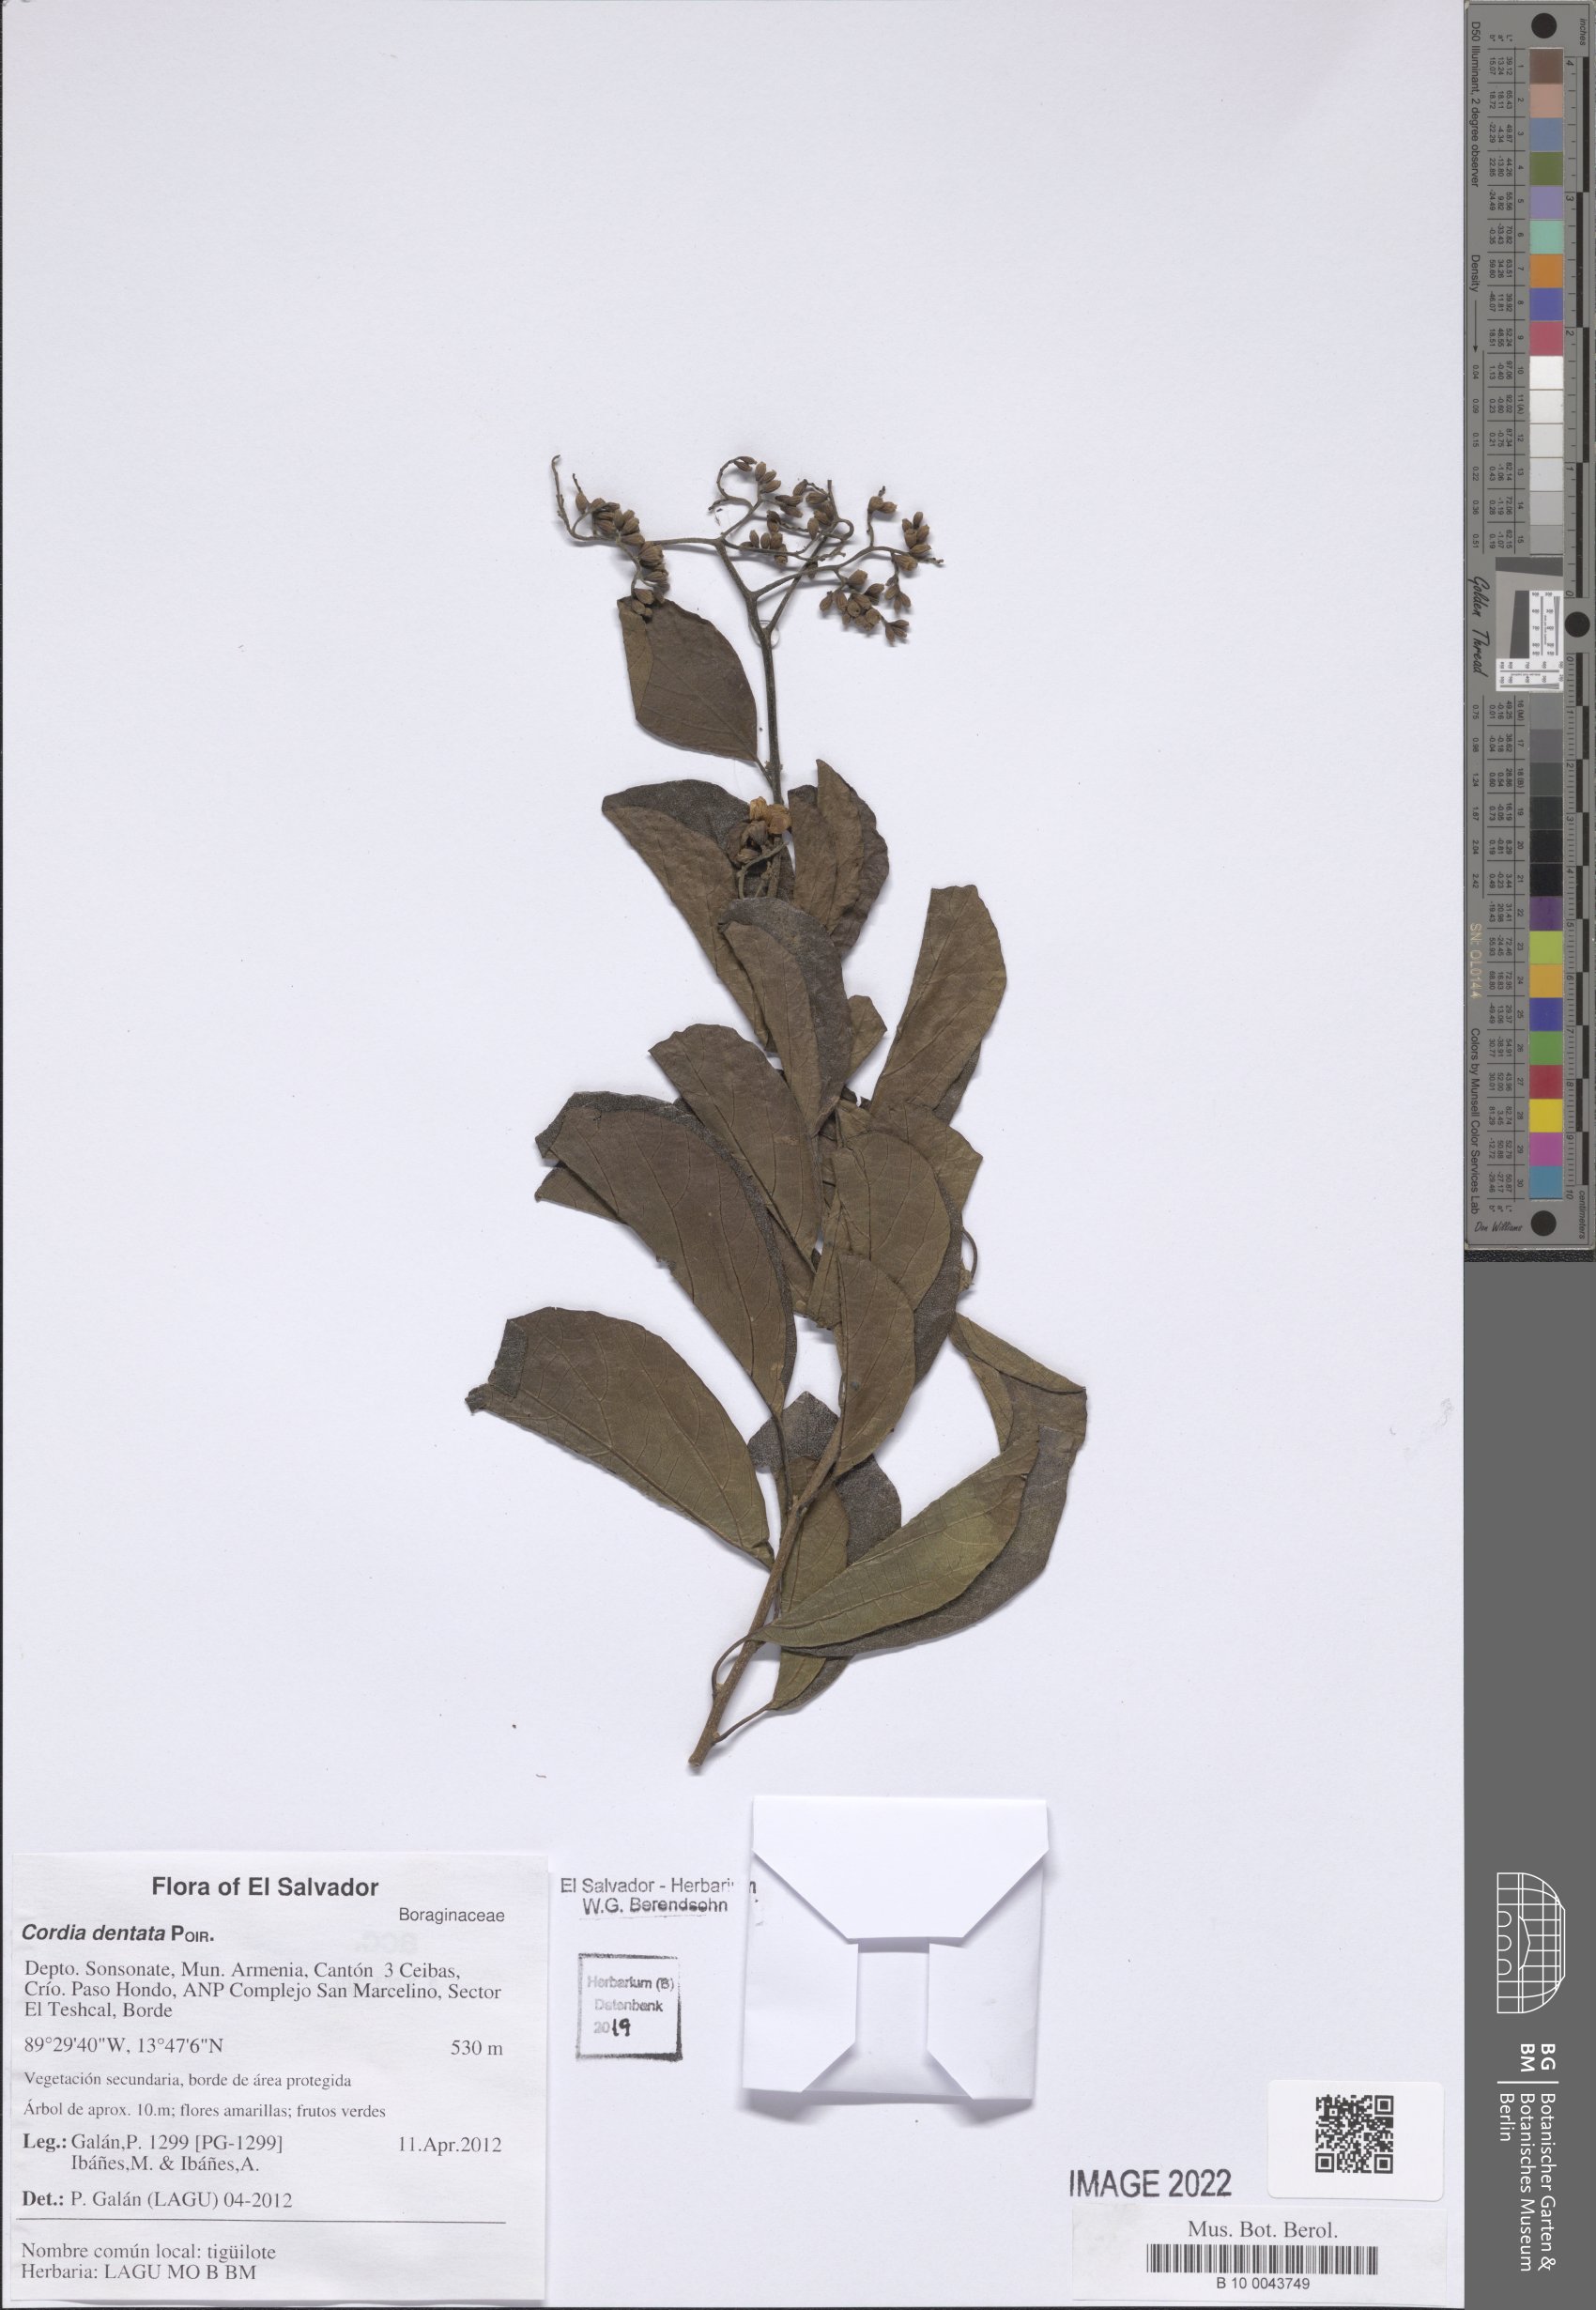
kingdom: Plantae
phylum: Tracheophyta
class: Magnoliopsida
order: Boraginales
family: Cordiaceae
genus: Cordia
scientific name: Cordia dentata
